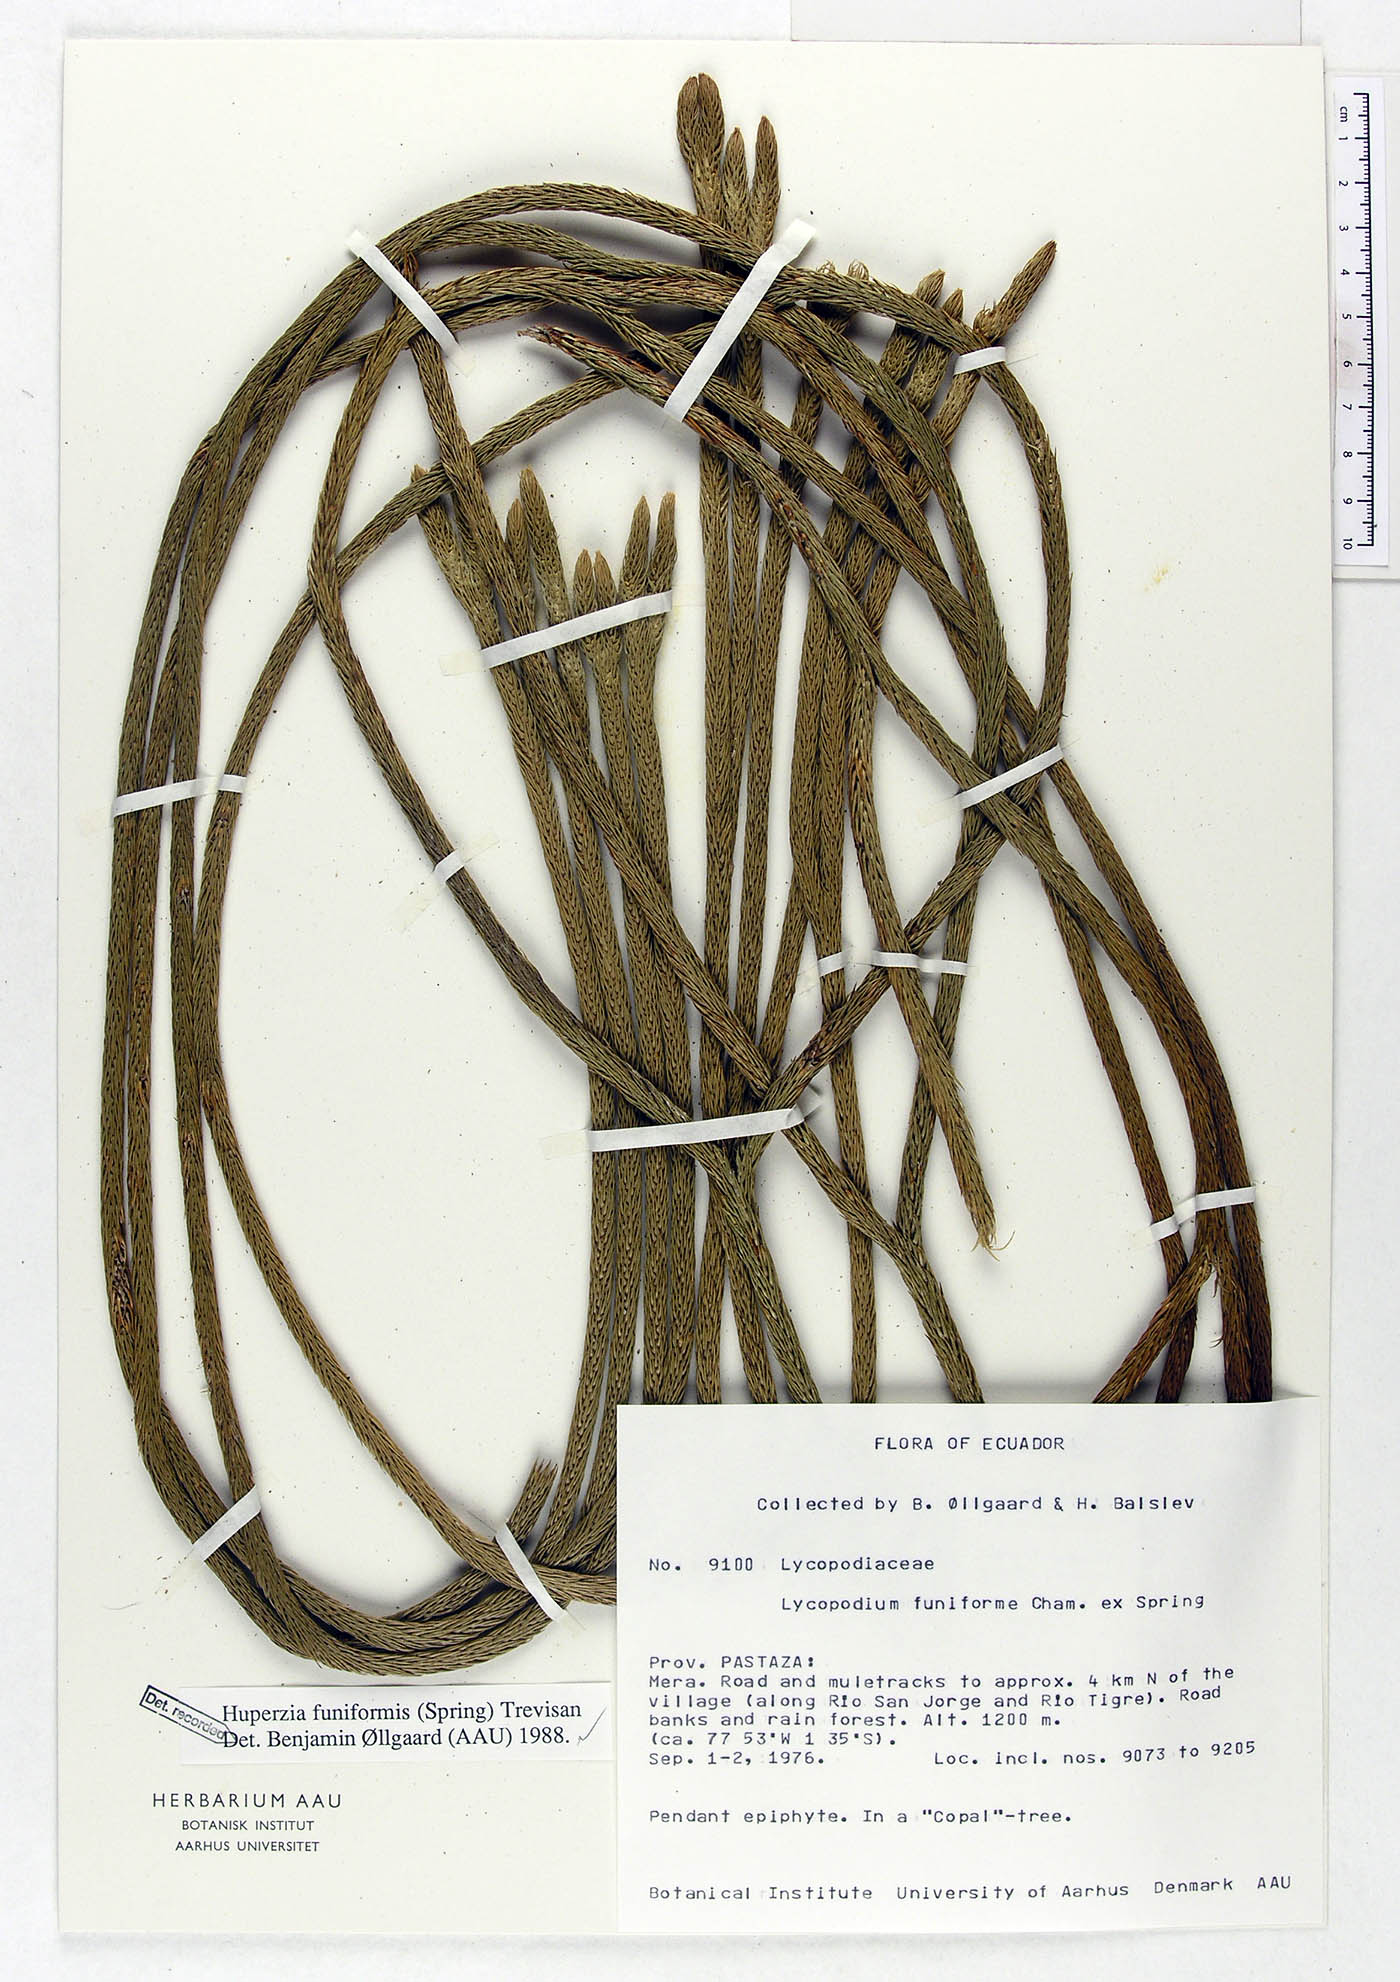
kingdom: Plantae
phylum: Tracheophyta
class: Lycopodiopsida
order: Lycopodiales
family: Lycopodiaceae
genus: Phlegmariurus
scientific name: Phlegmariurus funiformis
